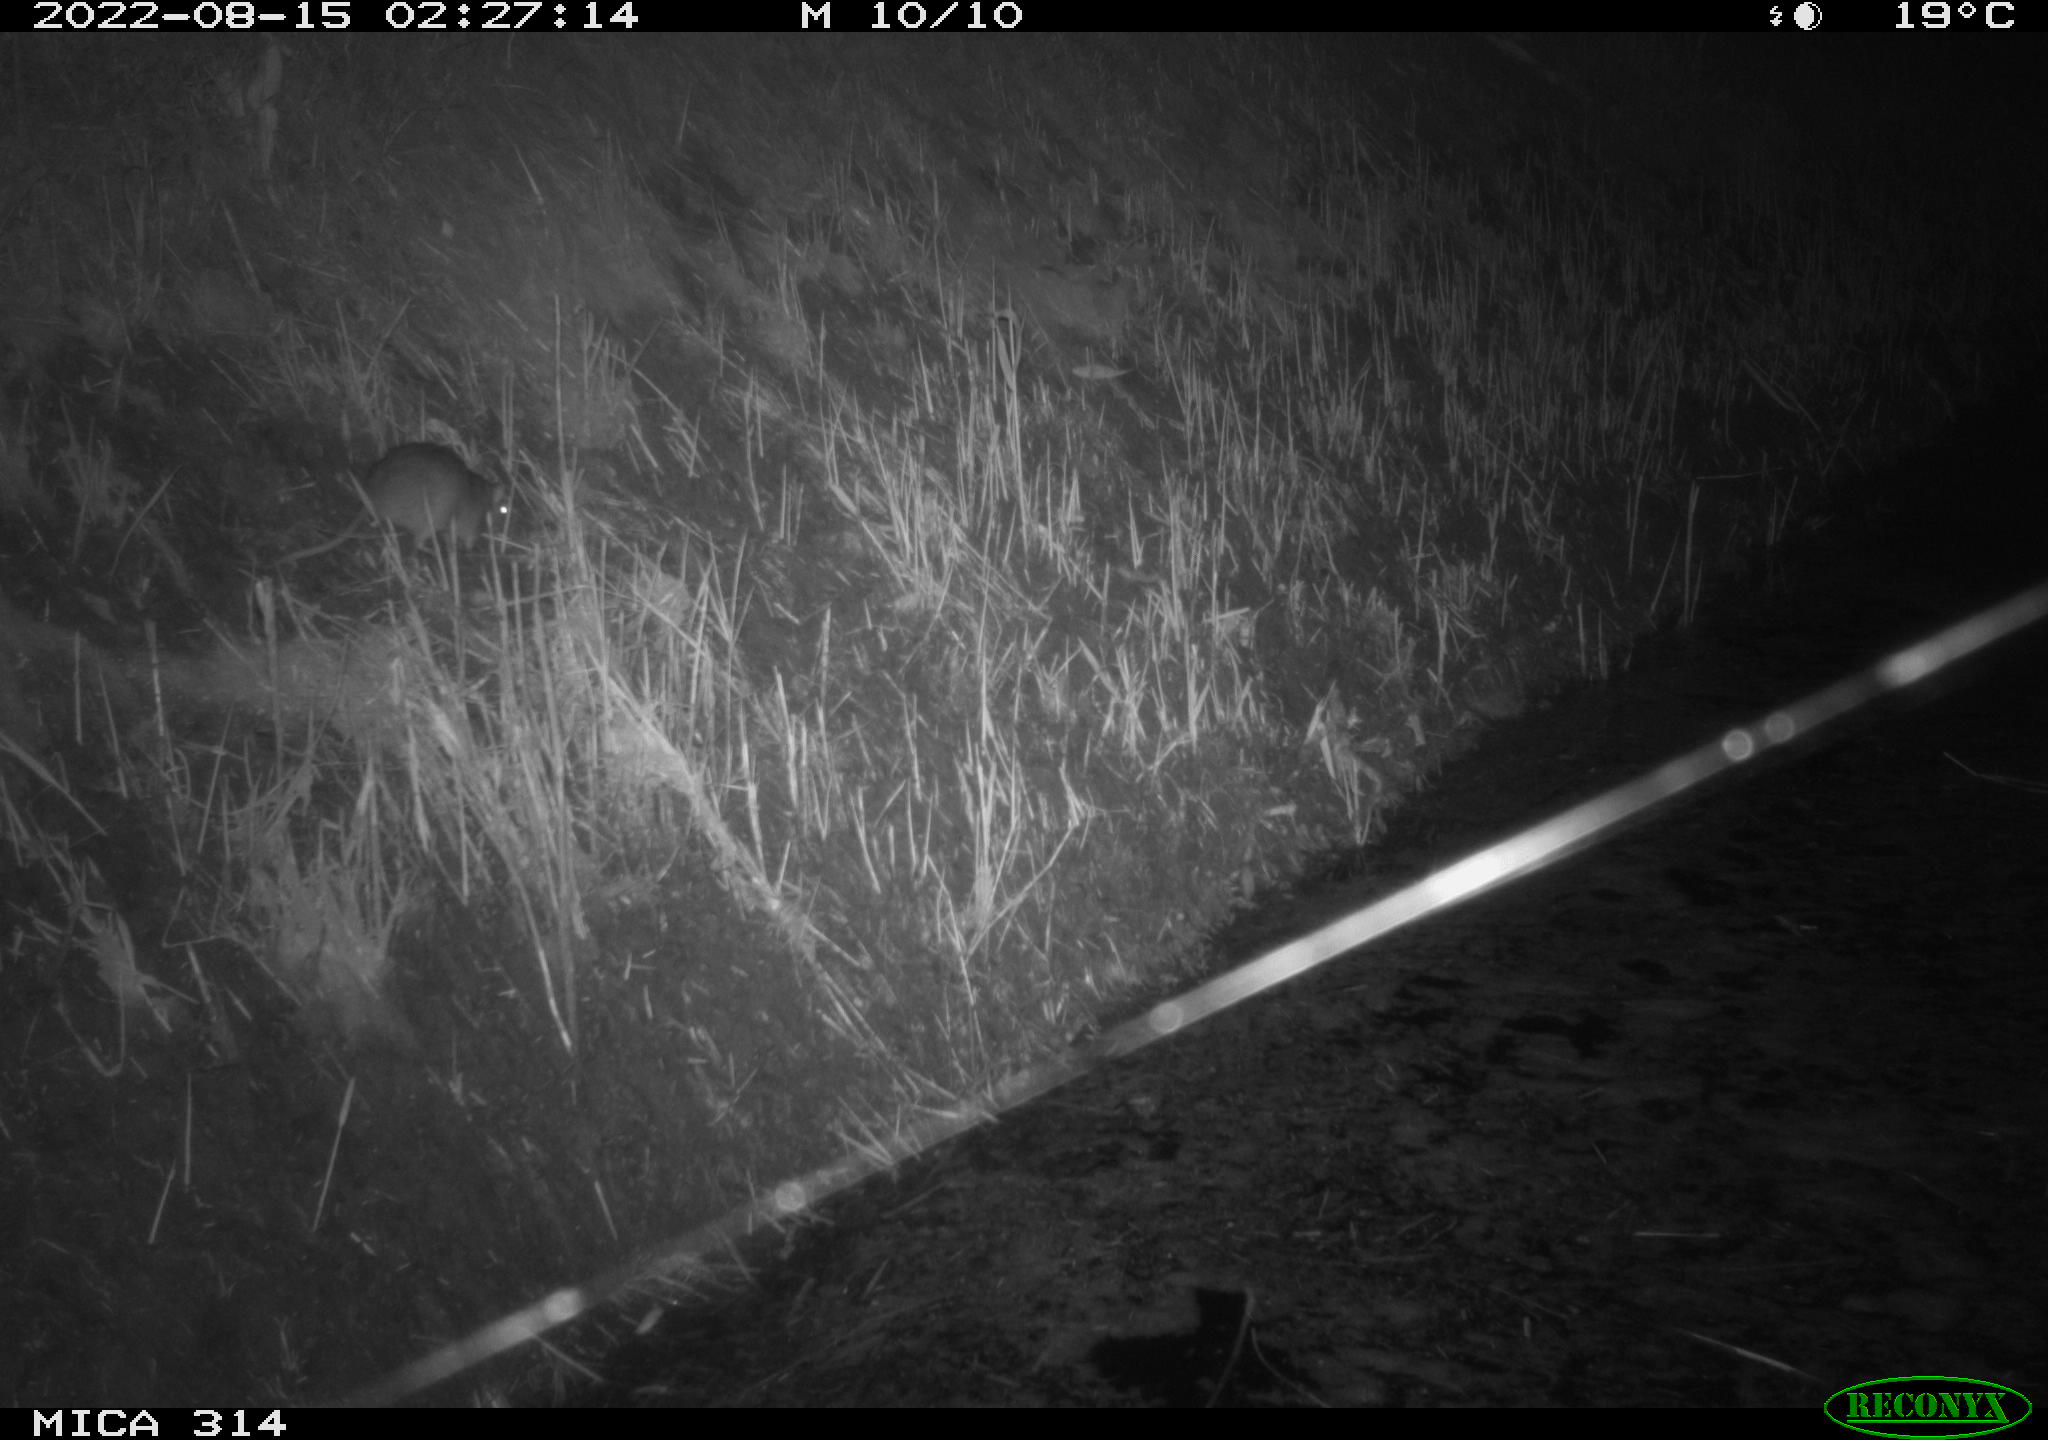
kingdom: Animalia
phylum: Chordata
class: Mammalia
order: Rodentia
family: Muridae
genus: Rattus
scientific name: Rattus norvegicus
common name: Brown rat
